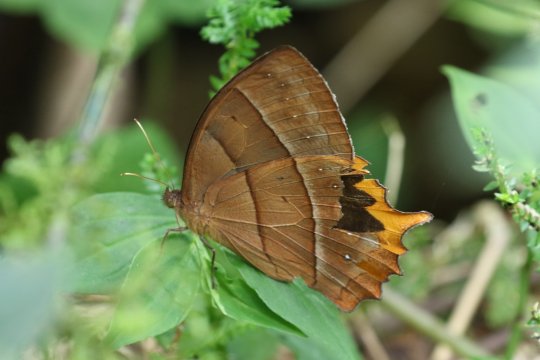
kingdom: Animalia
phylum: Arthropoda
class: Insecta
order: Lepidoptera
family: Nymphalidae
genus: Taygetis
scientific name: Taygetis chrysogone
